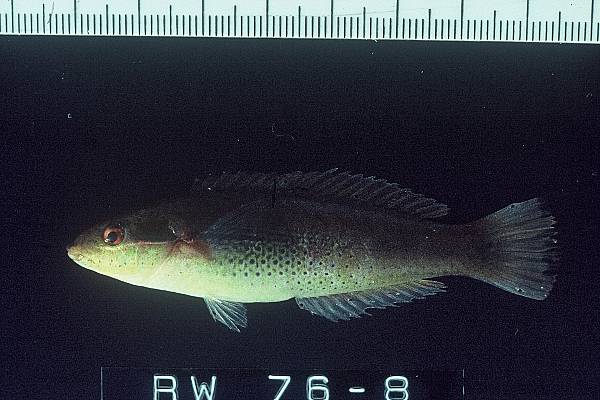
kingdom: Animalia
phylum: Chordata
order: Perciformes
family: Labridae
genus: Stethojulis
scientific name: Stethojulis interrupta
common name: Cutribbon wrasse
